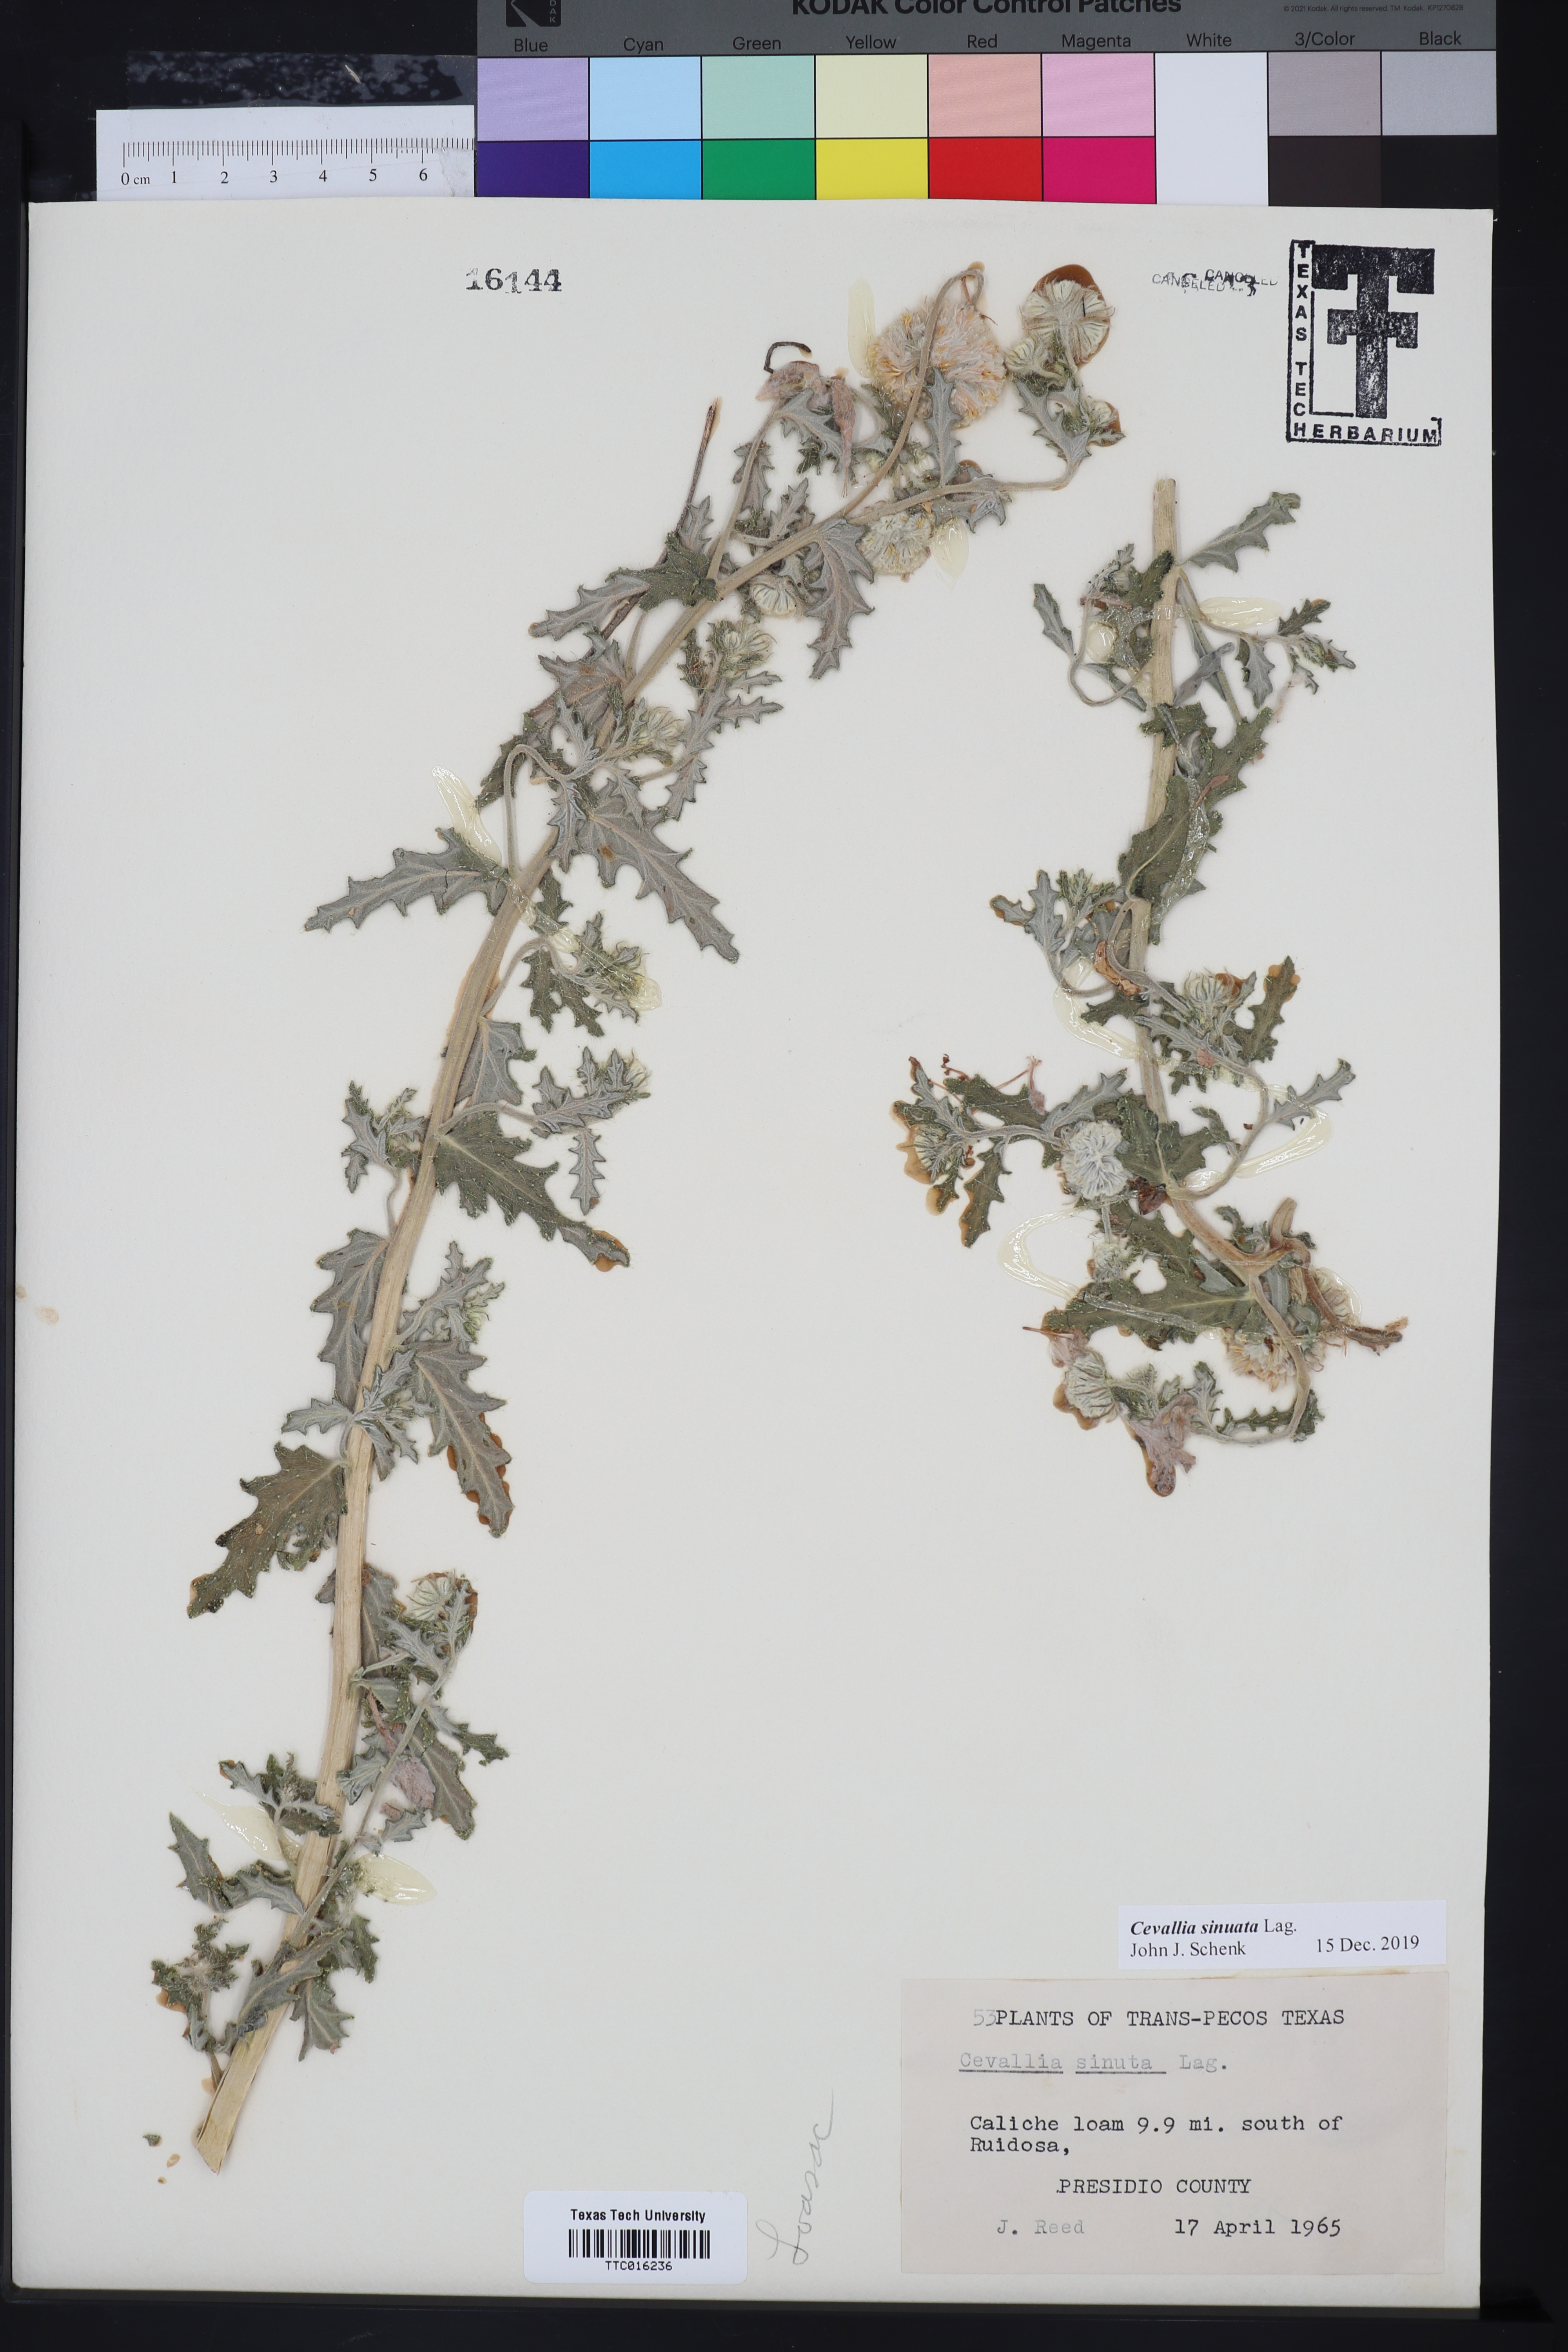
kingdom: Plantae
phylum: Tracheophyta
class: Magnoliopsida
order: Cornales
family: Loasaceae
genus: Cevallia
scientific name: Cevallia sinuata
